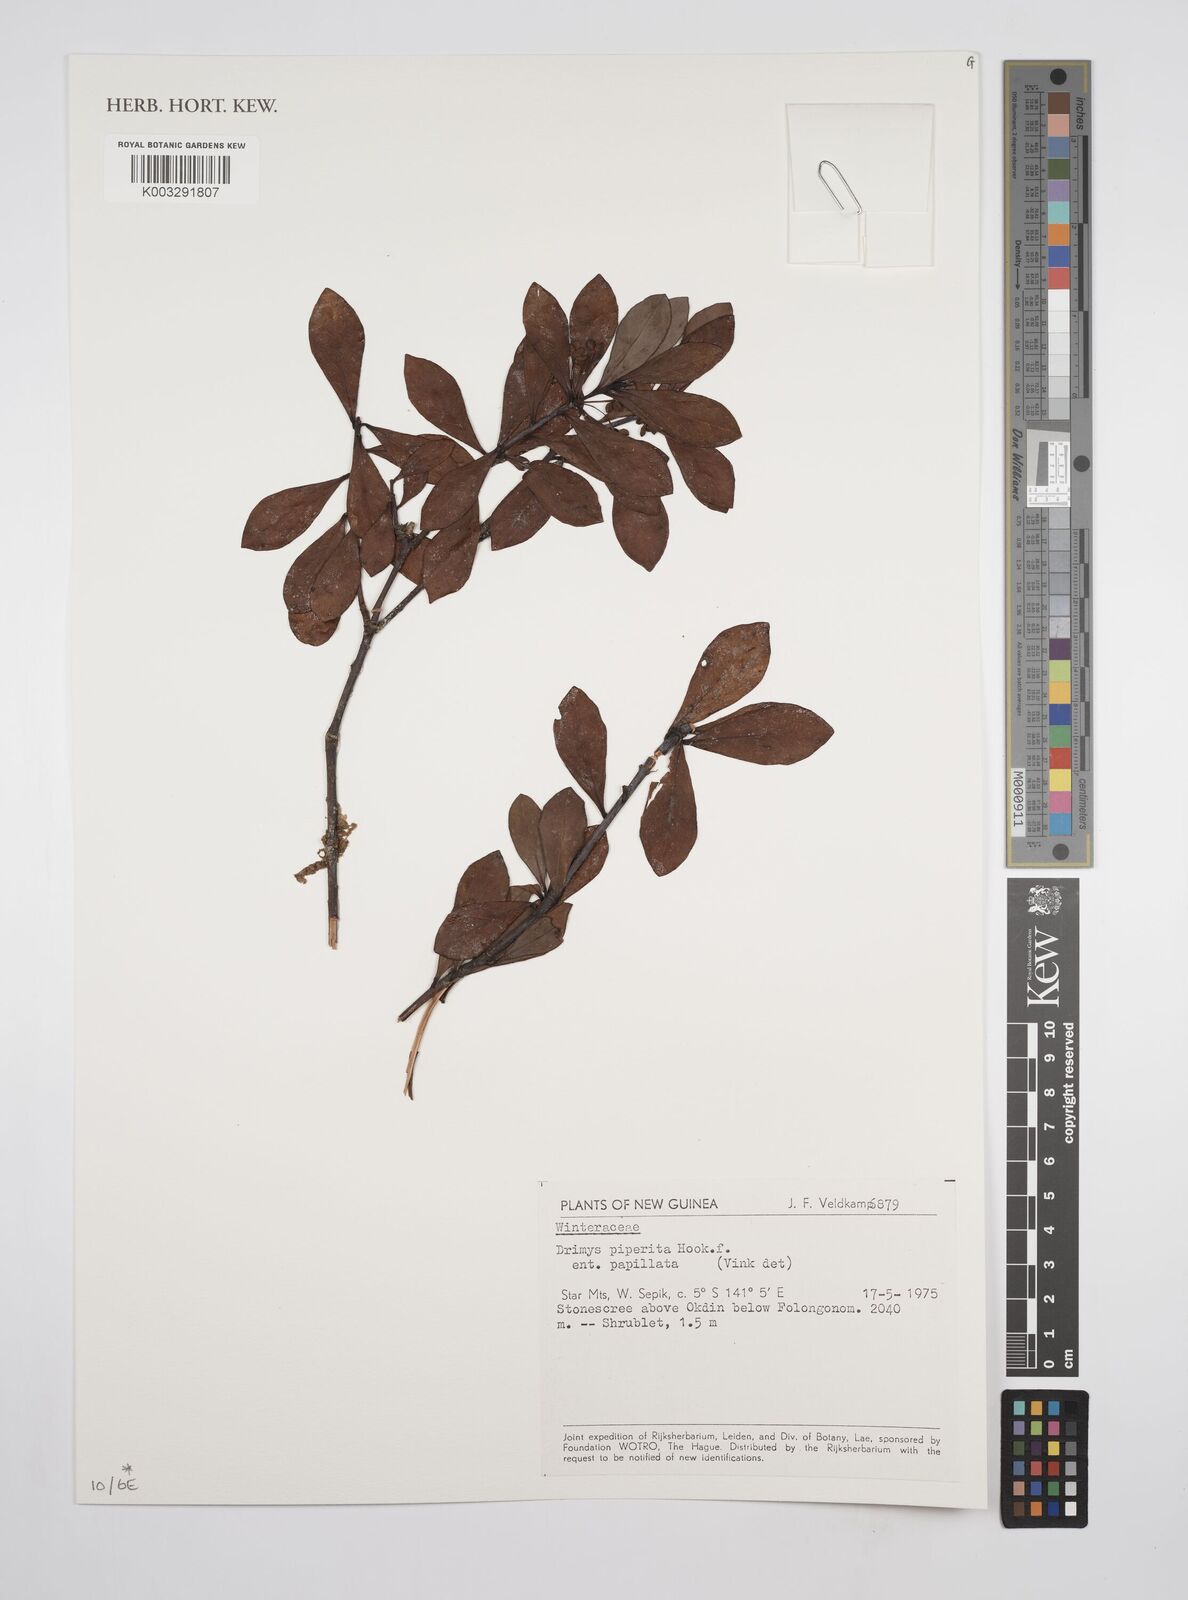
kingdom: Plantae
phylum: Tracheophyta
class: Magnoliopsida
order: Canellales
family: Winteraceae
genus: Drimys
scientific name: Drimys piperita
